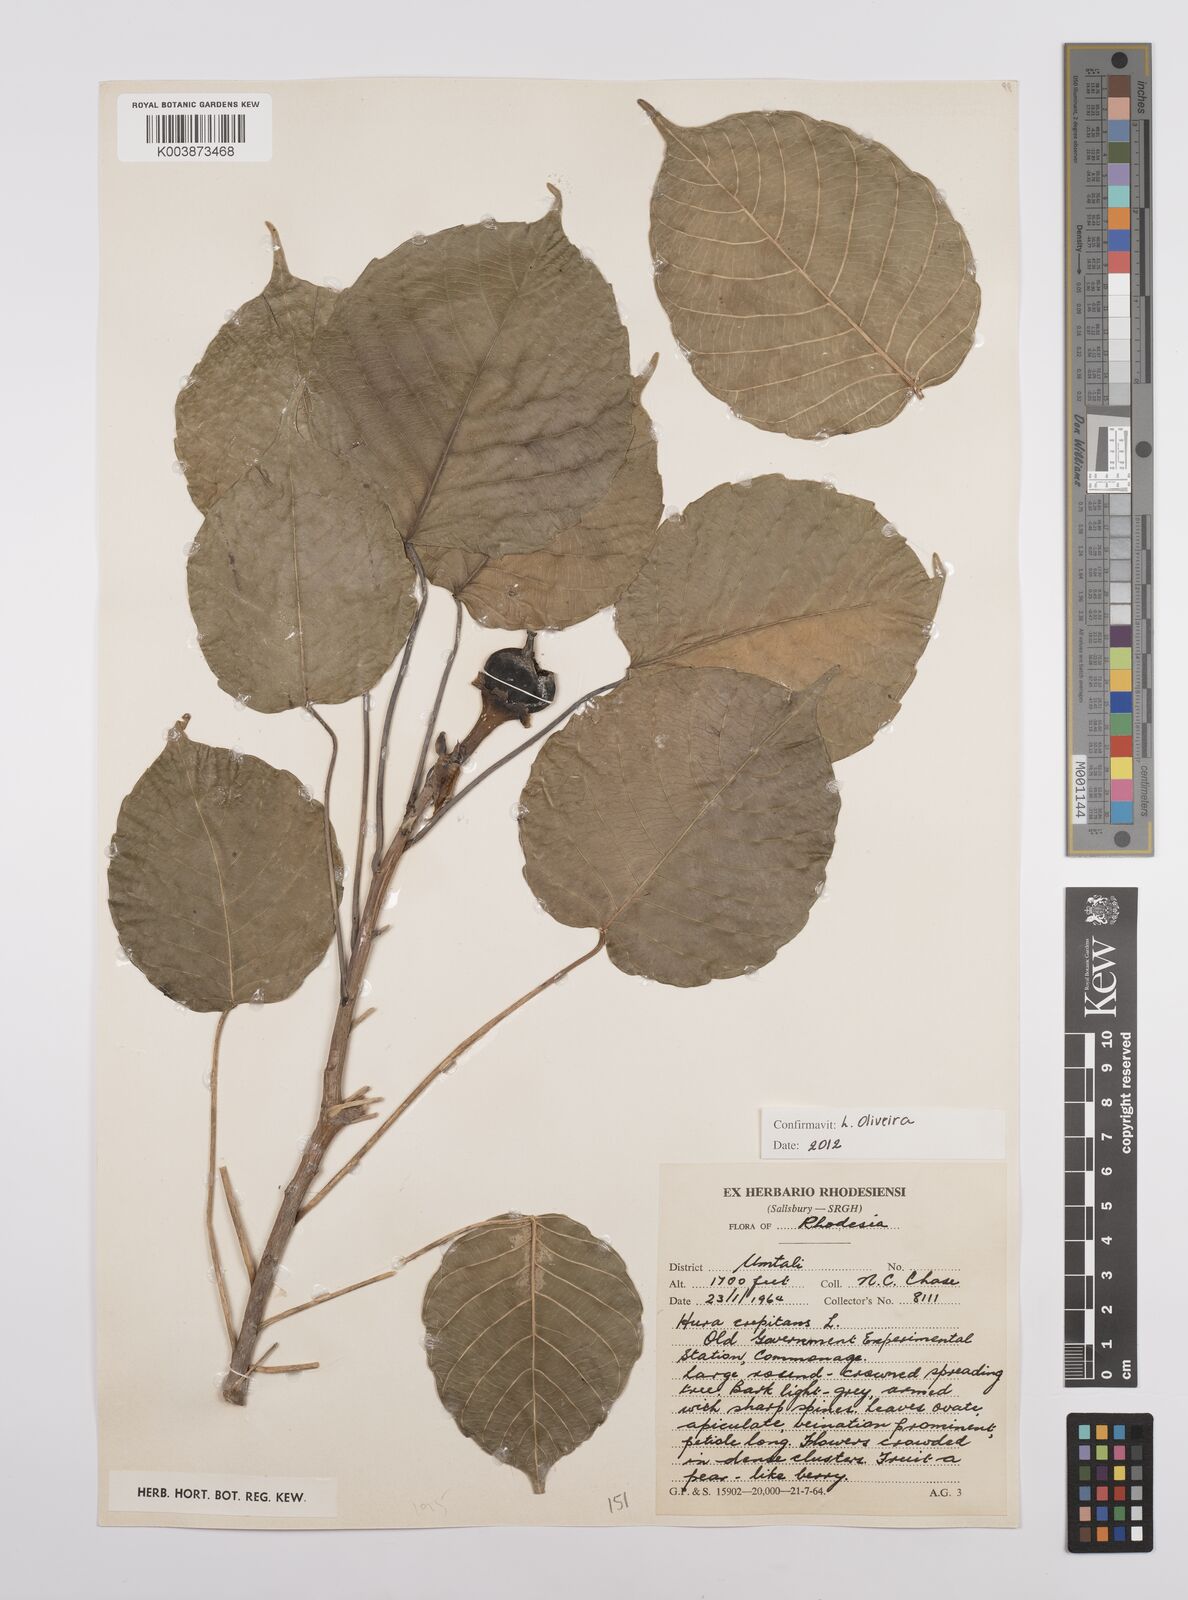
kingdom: Plantae
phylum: Tracheophyta
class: Magnoliopsida
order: Malpighiales
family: Euphorbiaceae
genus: Hura
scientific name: Hura crepitans
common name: Sandboxtree
